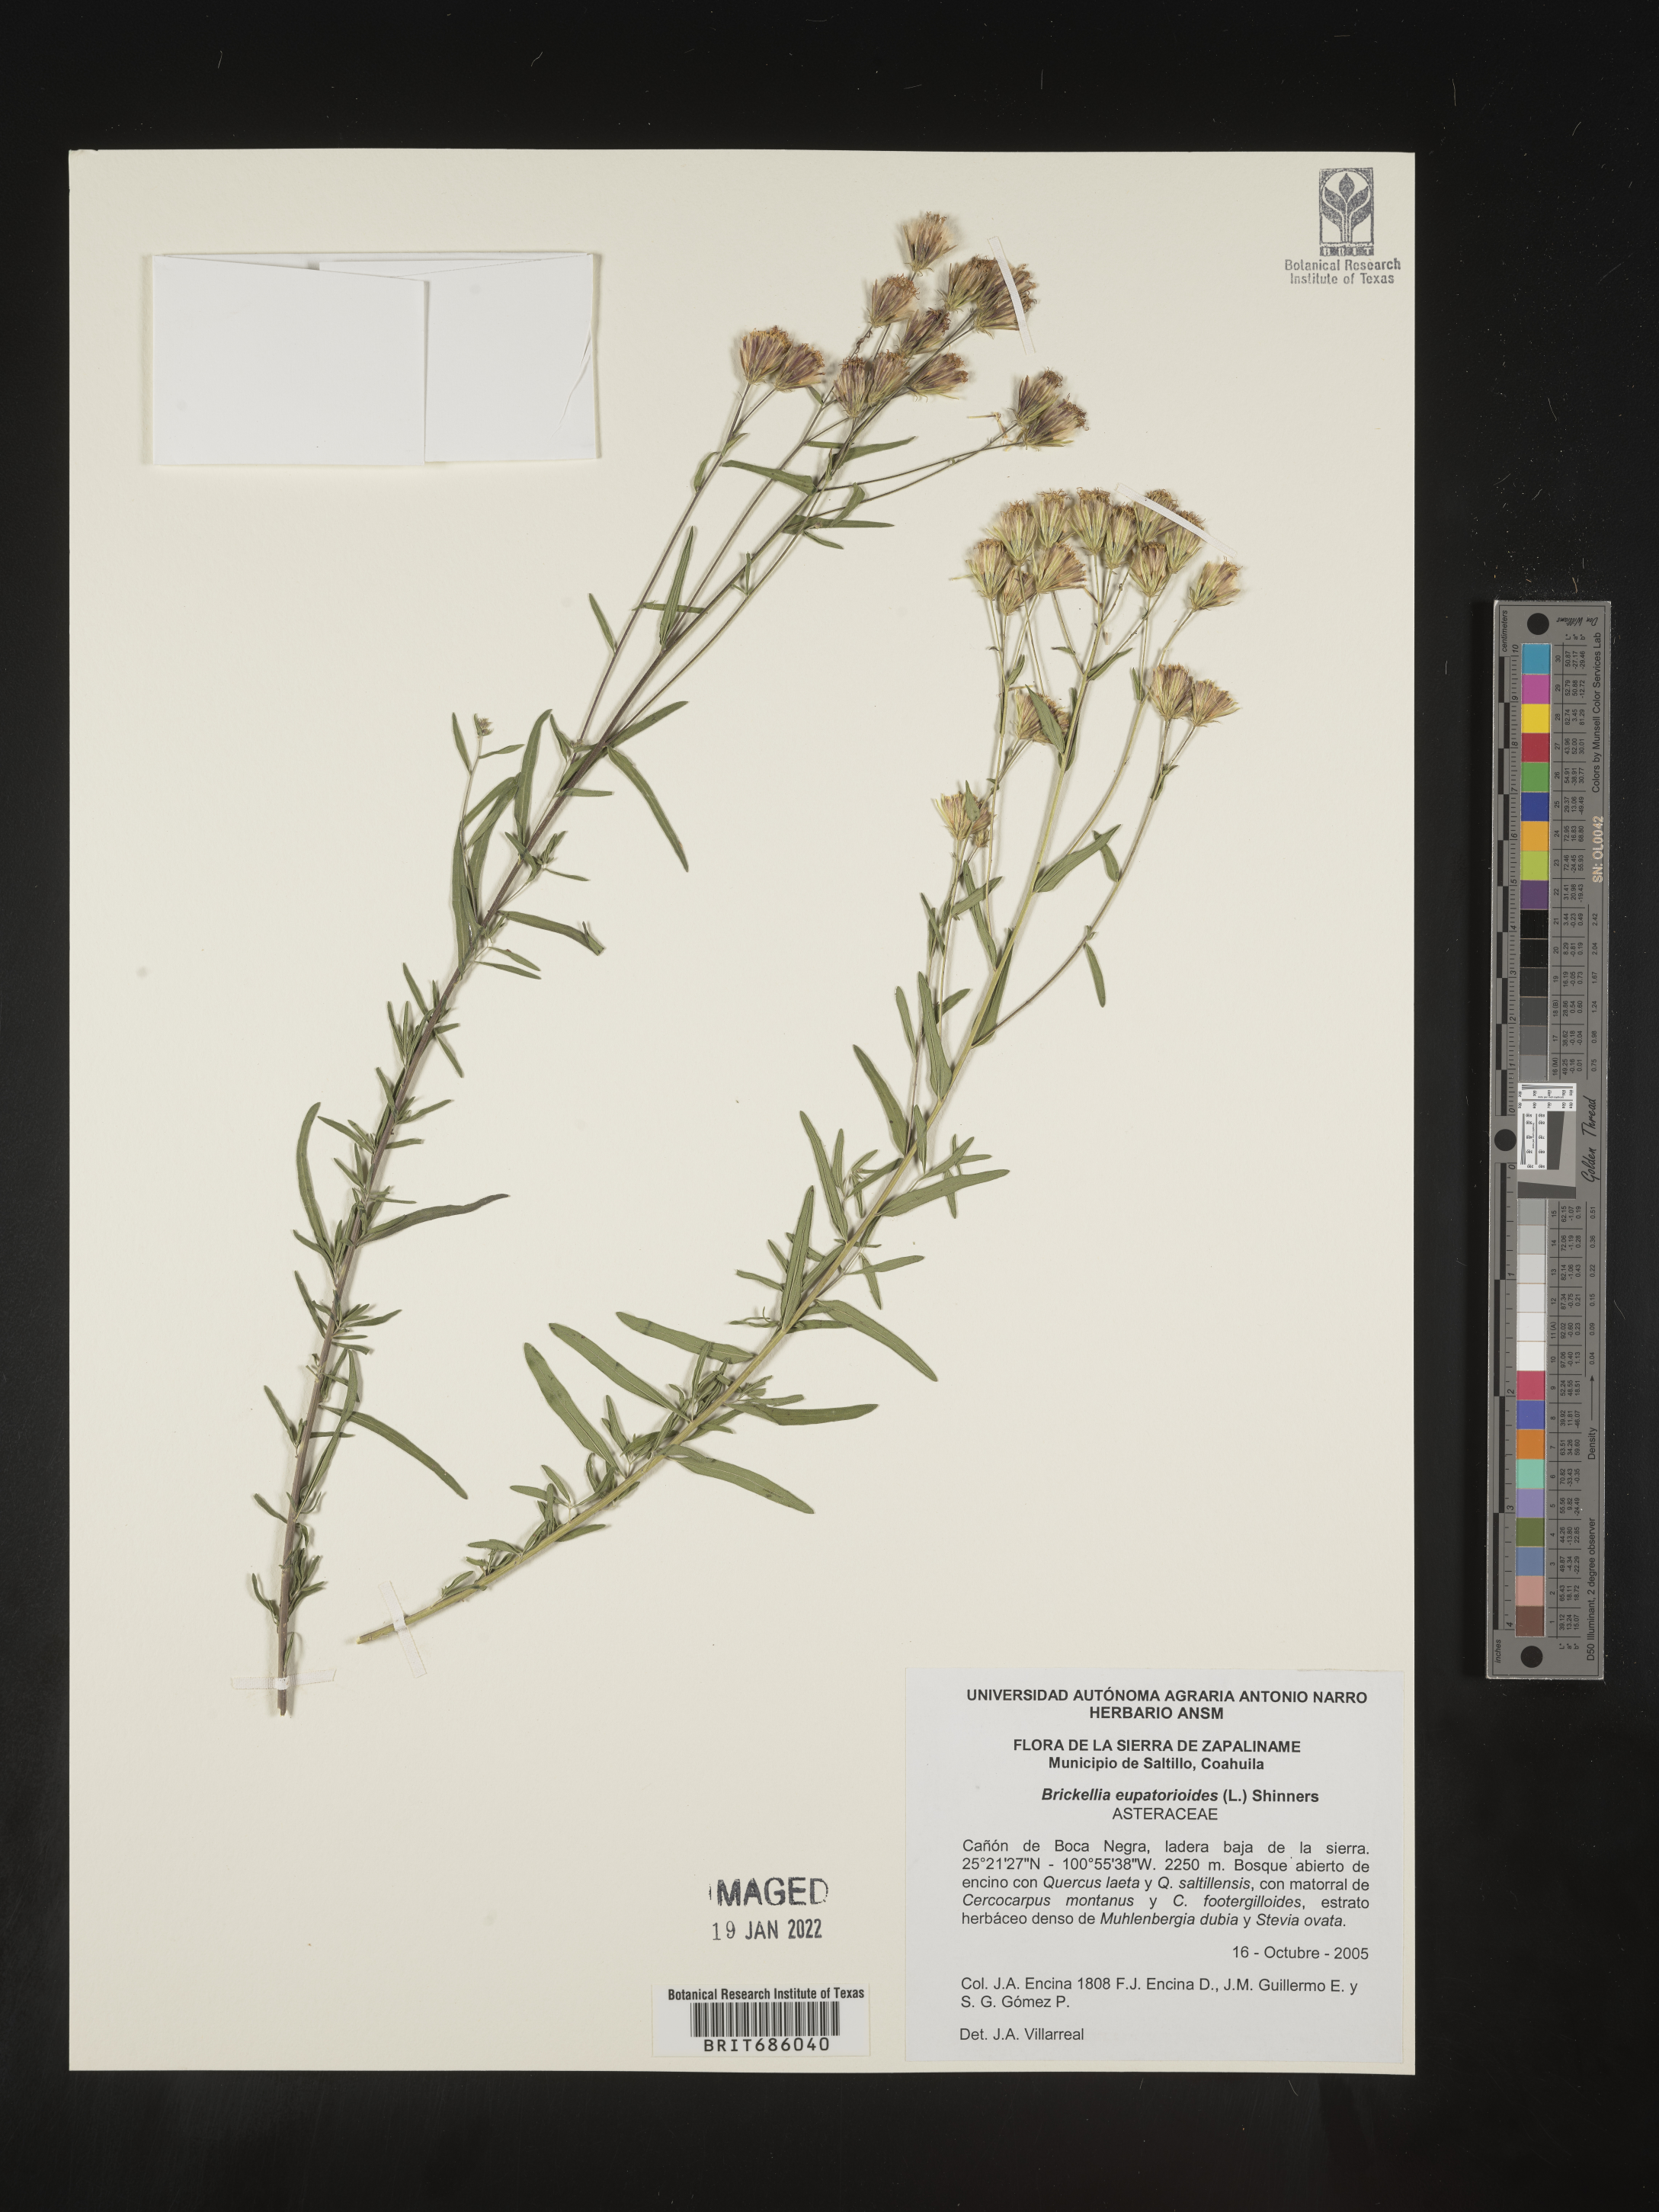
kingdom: Plantae
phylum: Tracheophyta
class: Magnoliopsida
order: Asterales
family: Asteraceae
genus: Brickellia
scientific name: Brickellia
